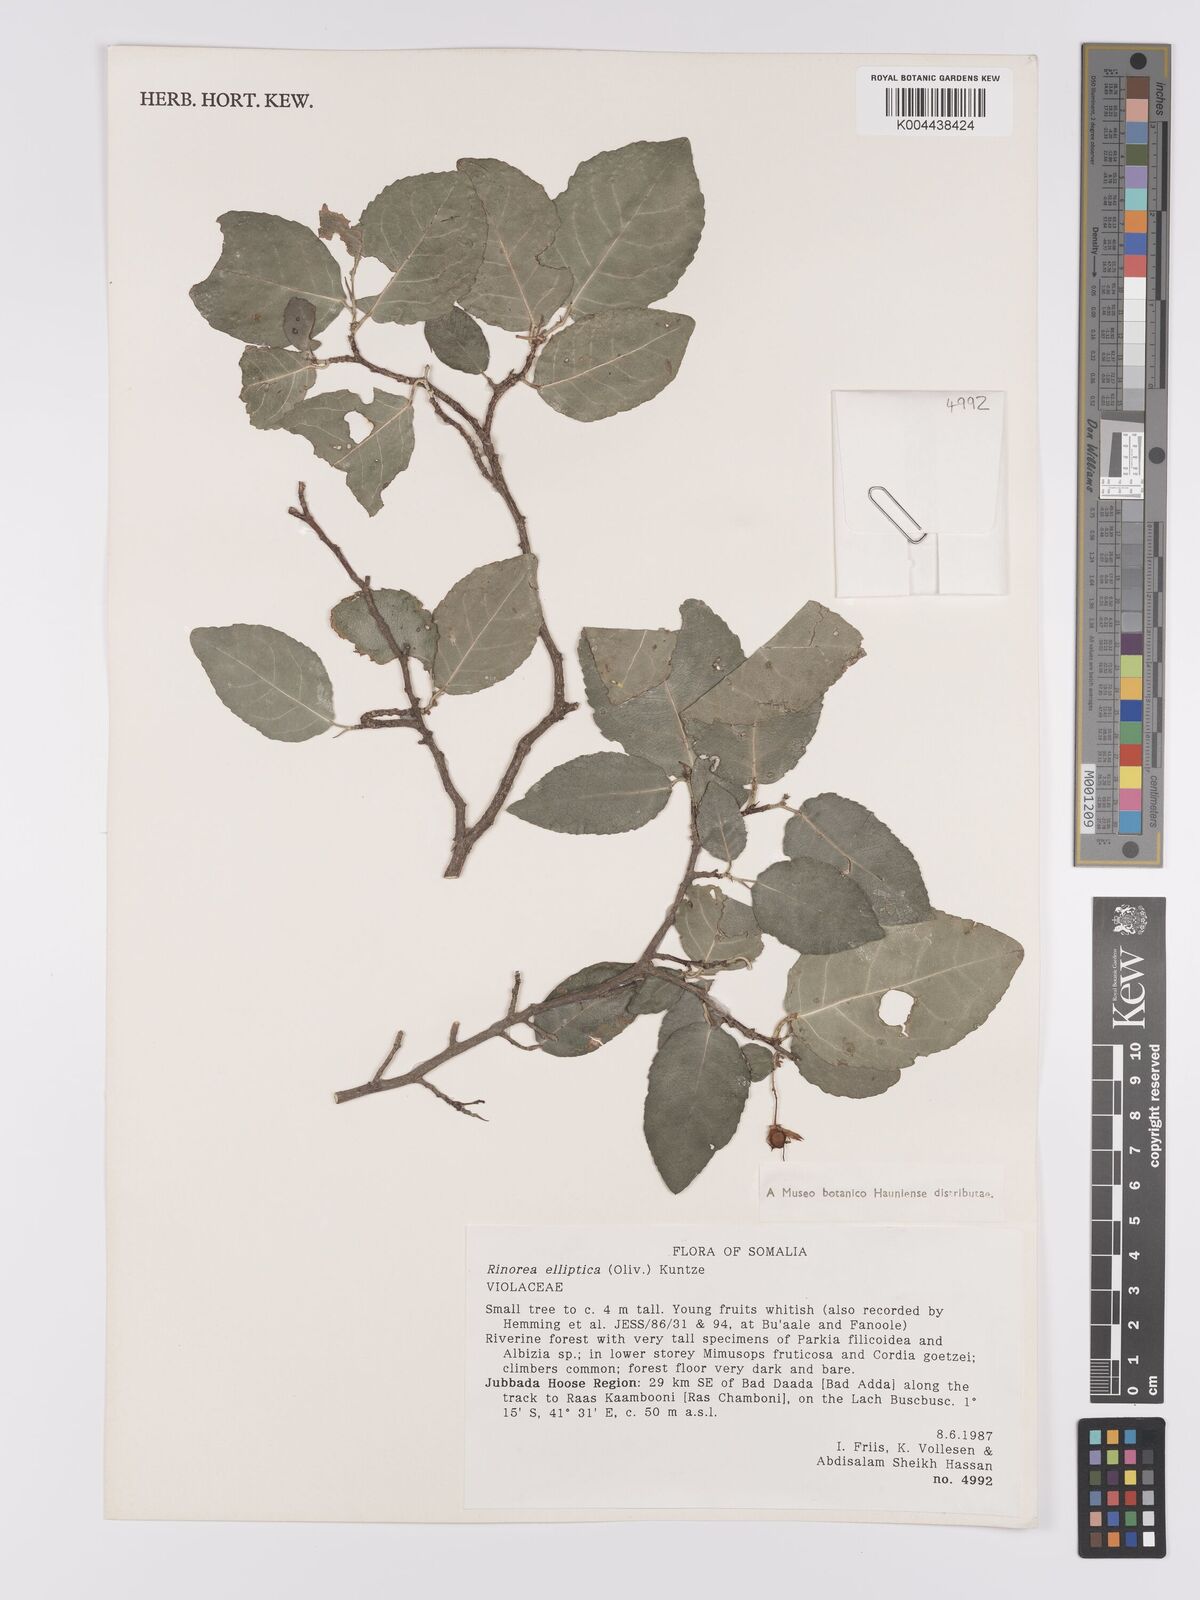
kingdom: Plantae
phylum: Tracheophyta
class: Magnoliopsida
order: Malpighiales
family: Violaceae
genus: Rinorea
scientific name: Rinorea elliptica
